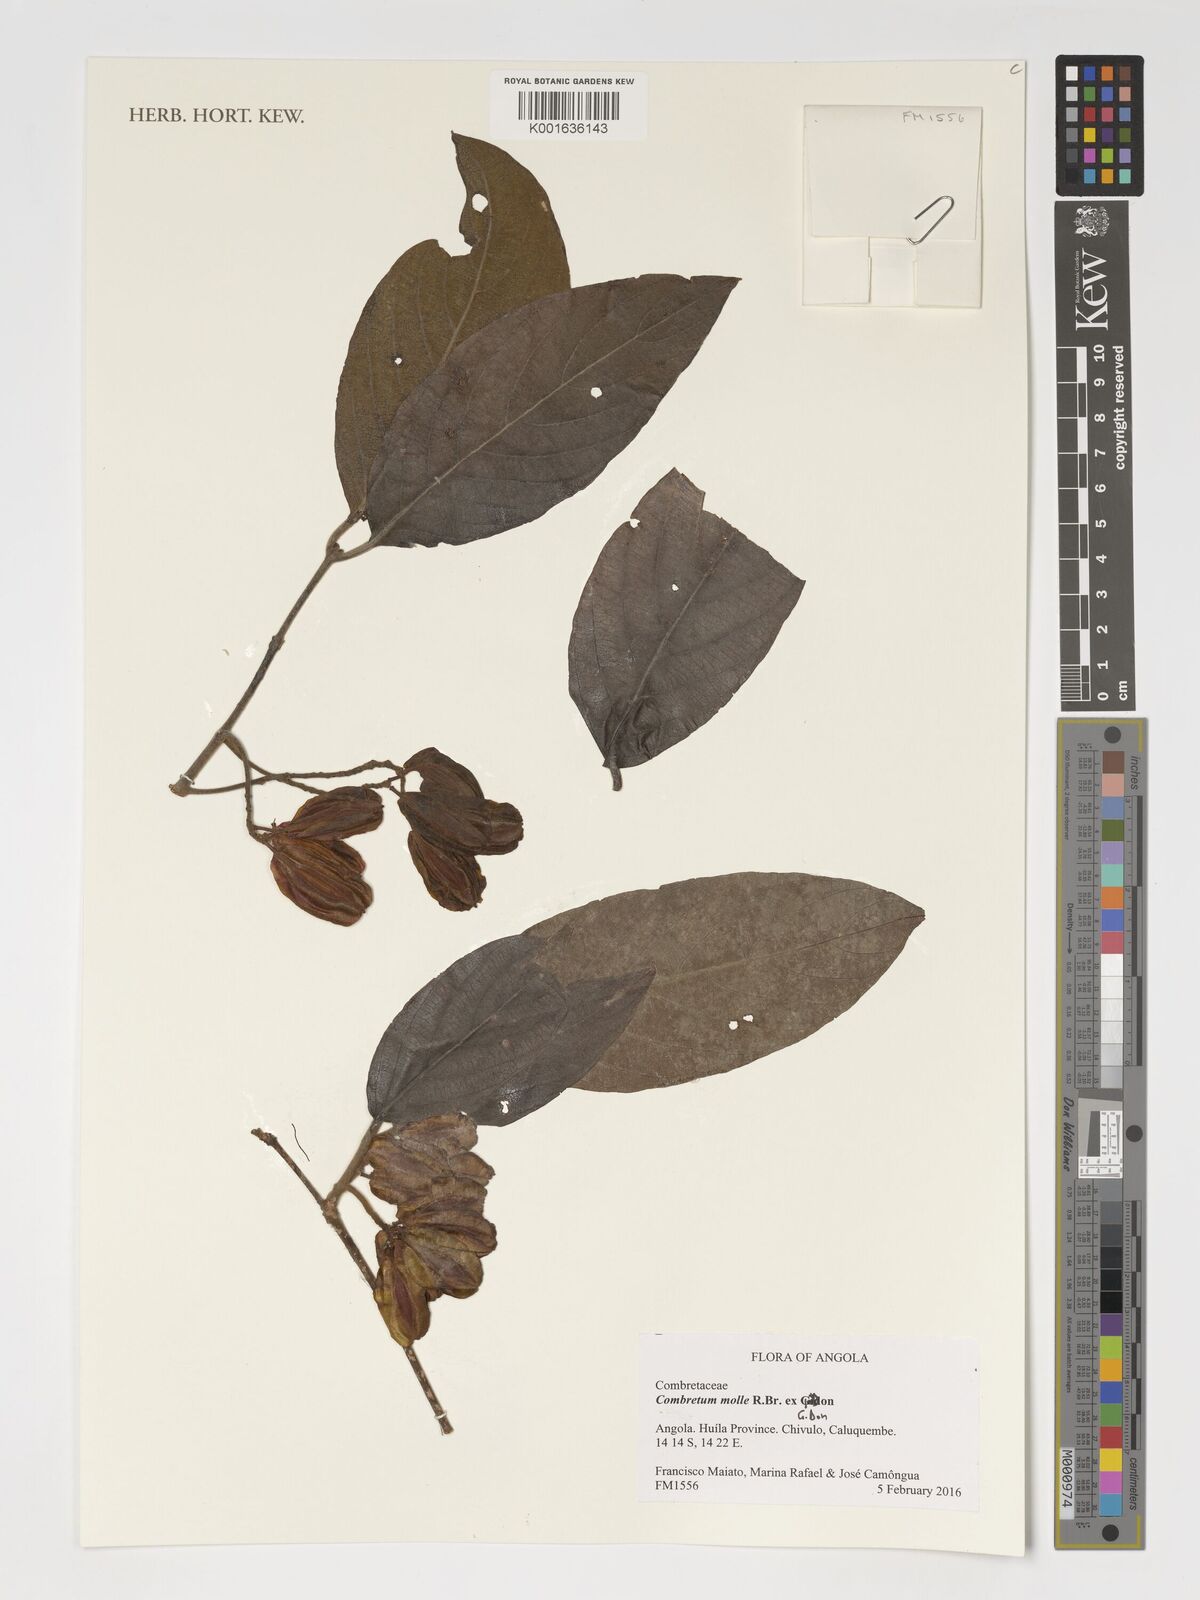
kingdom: Plantae
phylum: Tracheophyta
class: Magnoliopsida
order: Myrtales
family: Combretaceae
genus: Combretum
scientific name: Combretum molle
